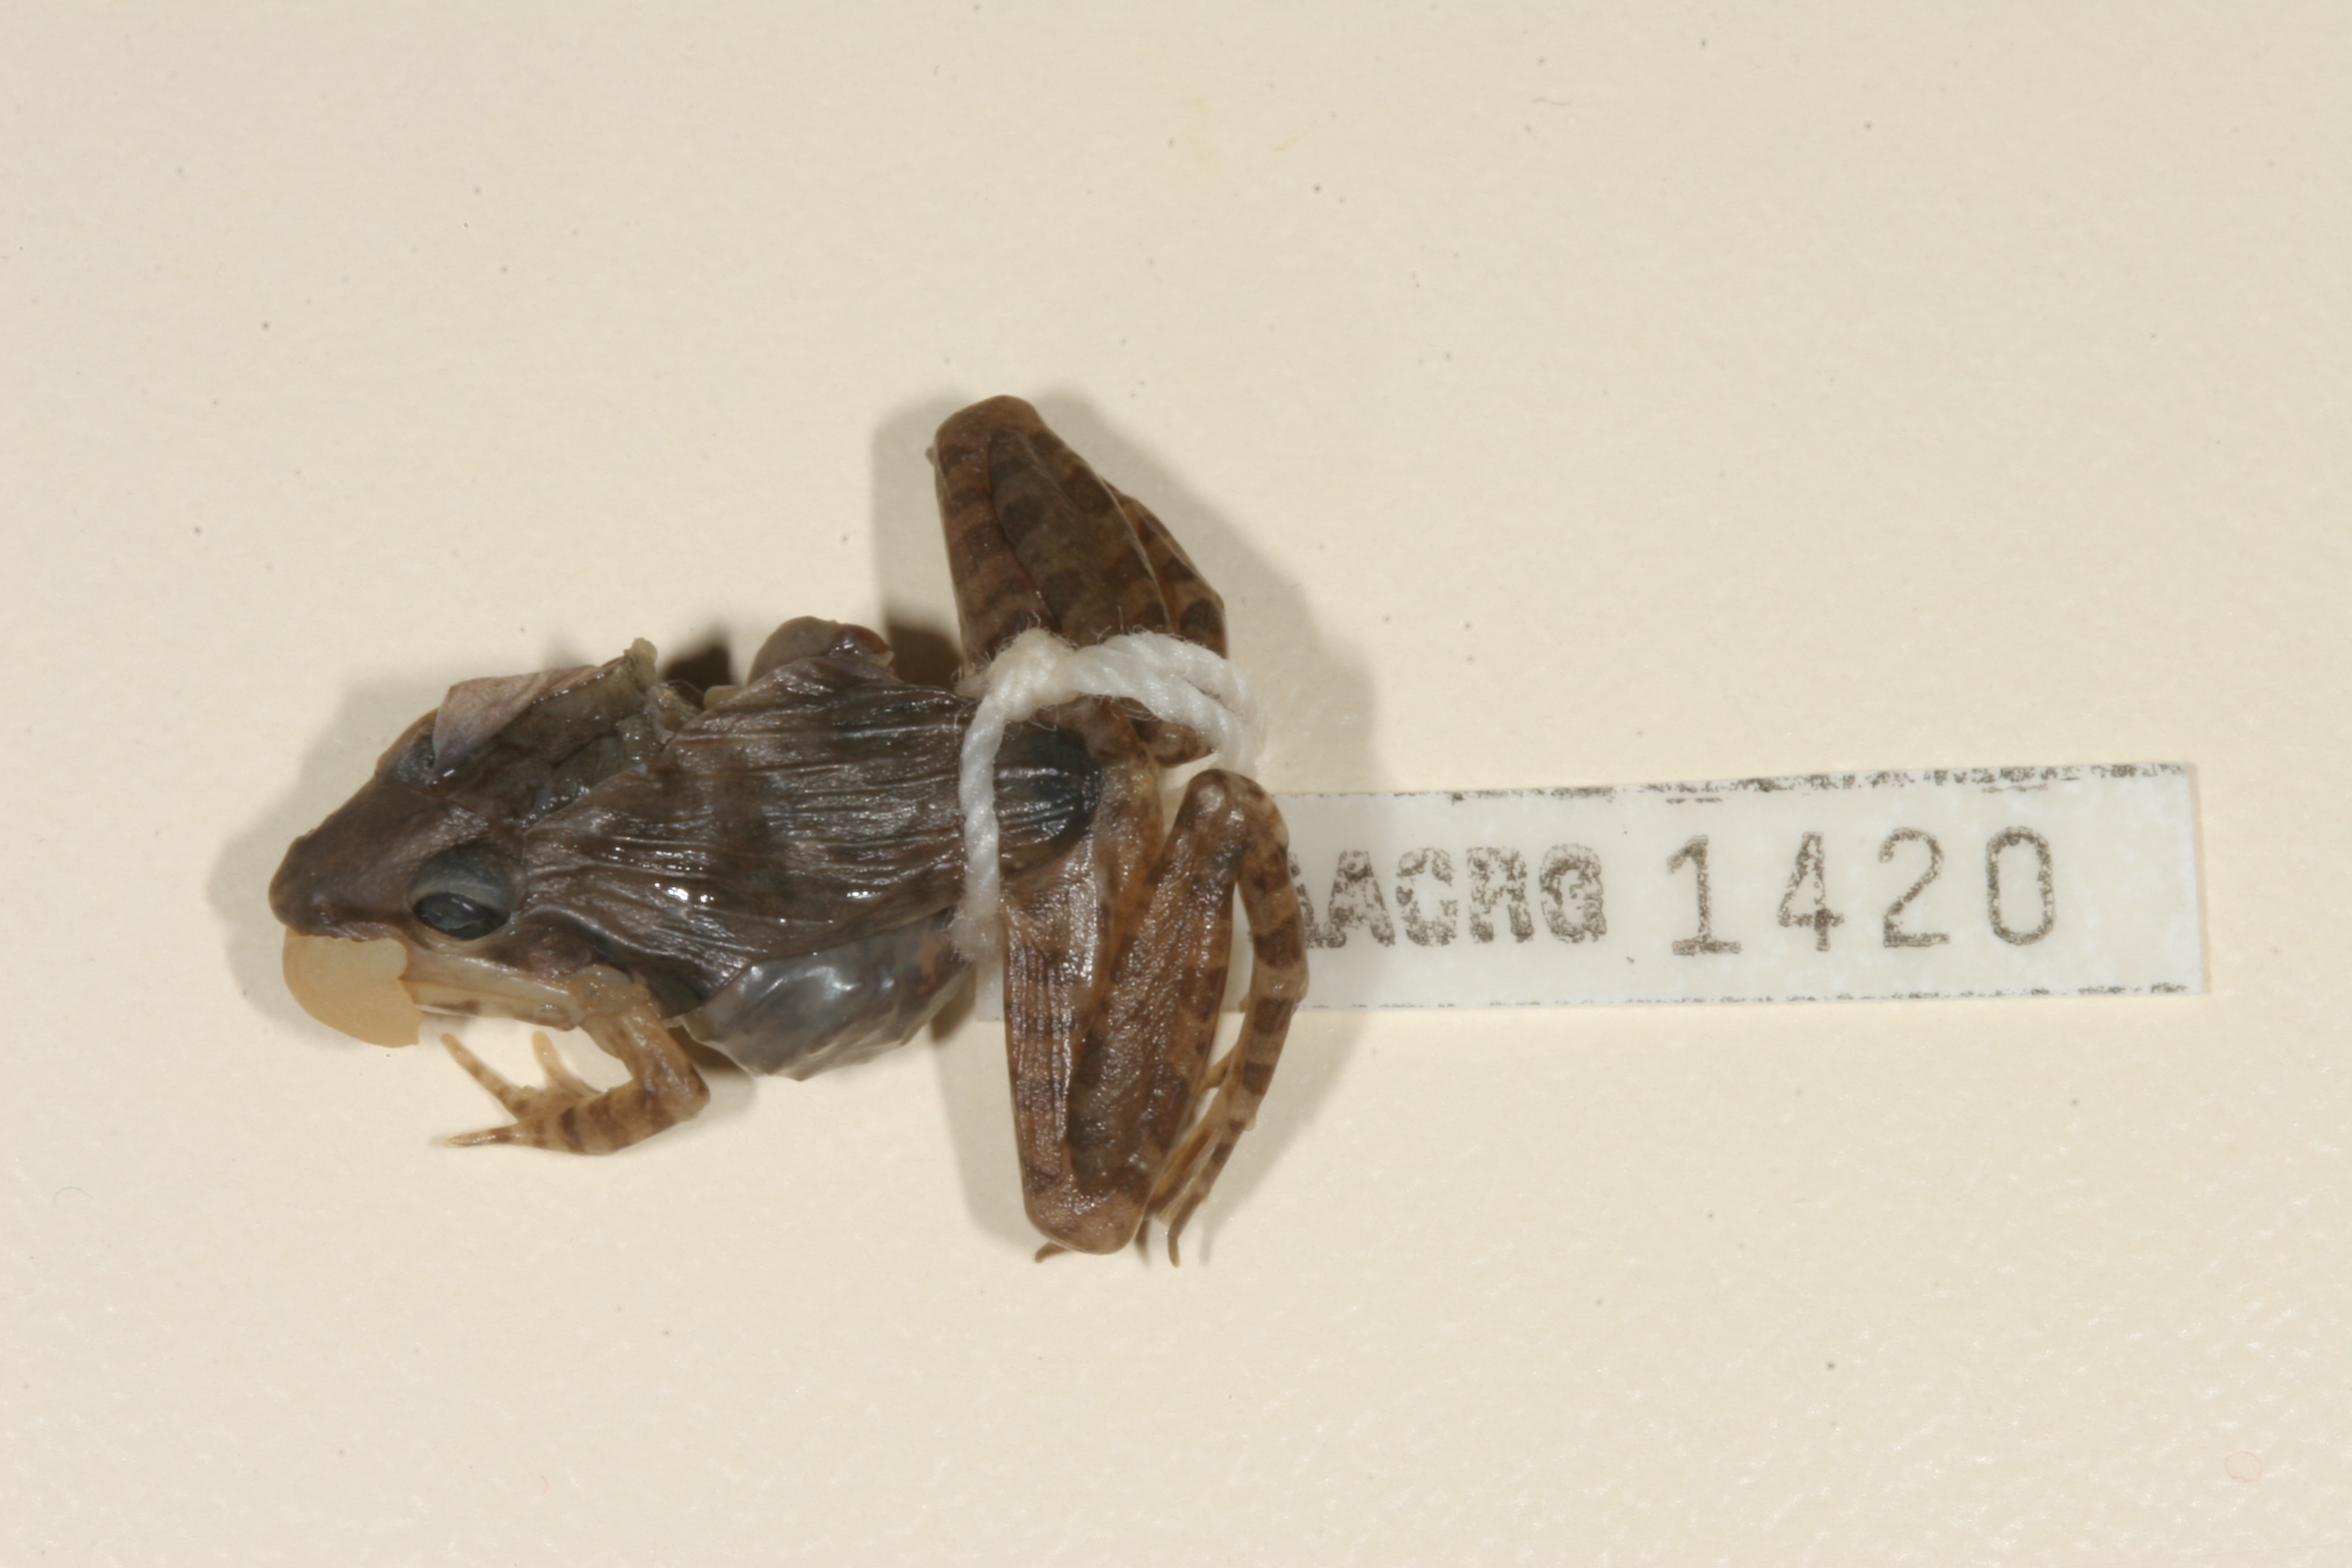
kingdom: Animalia
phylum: Chordata
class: Amphibia
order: Anura
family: Ptychadenidae
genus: Ptychadena
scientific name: Ptychadena anchietae
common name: Anchieta's ridged frog
